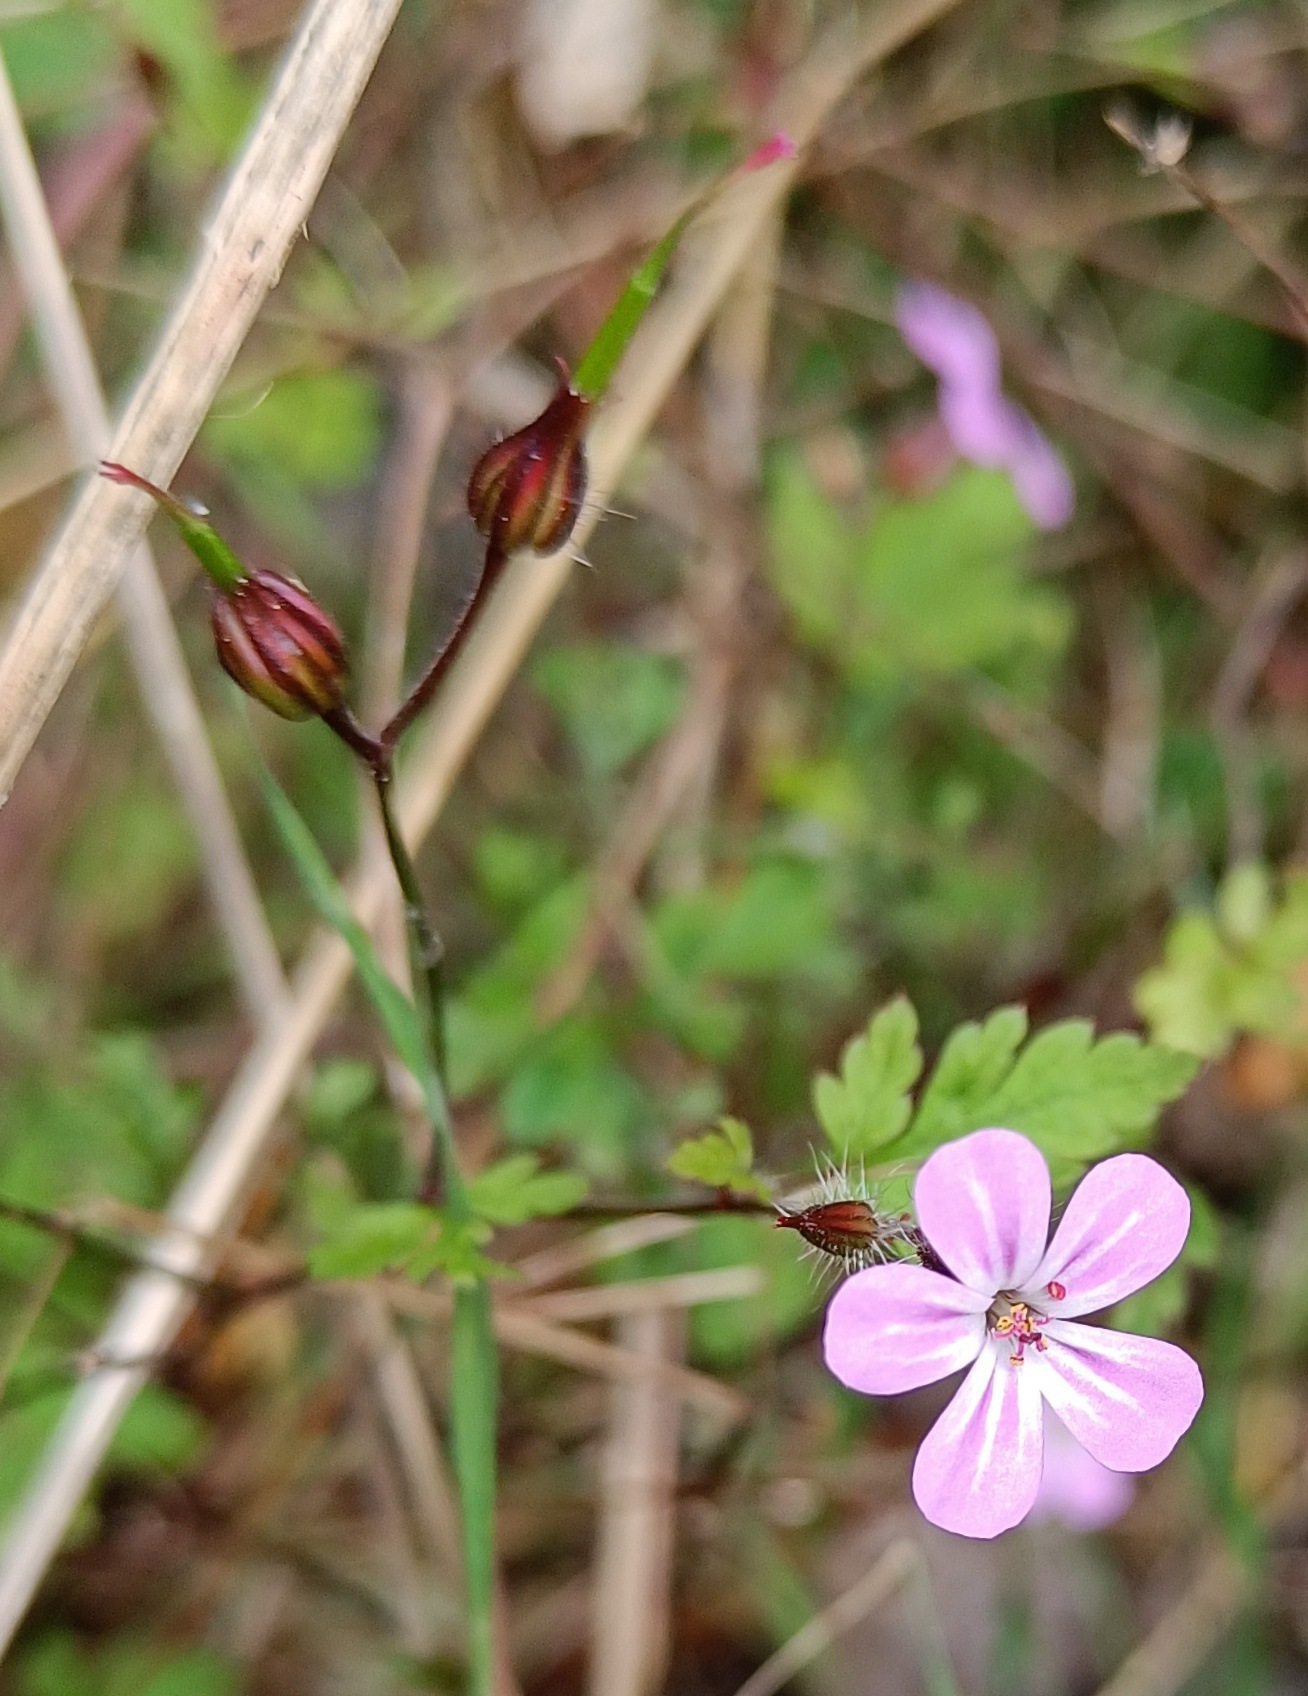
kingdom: Plantae
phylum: Tracheophyta
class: Magnoliopsida
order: Geraniales
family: Geraniaceae
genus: Geranium
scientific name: Geranium robertianum
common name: Stinkende storkenæb
